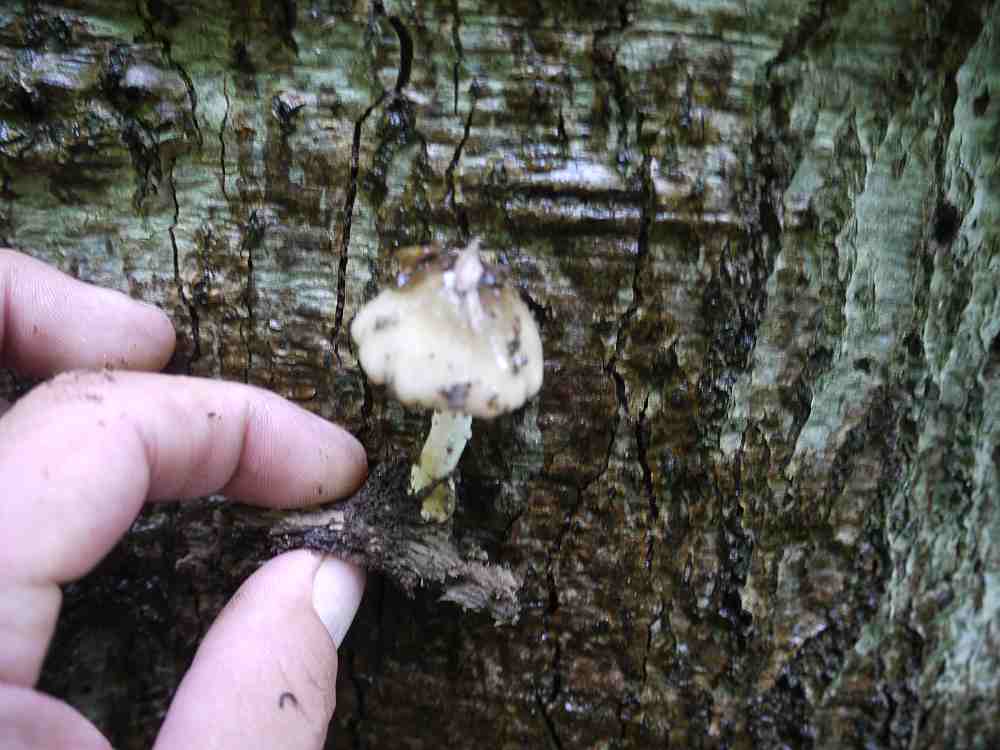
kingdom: Fungi
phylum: Basidiomycota
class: Agaricomycetes
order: Agaricales
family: Bolbitiaceae
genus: Bolbitius
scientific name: Bolbitius reticulatus
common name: netåret gulhat
